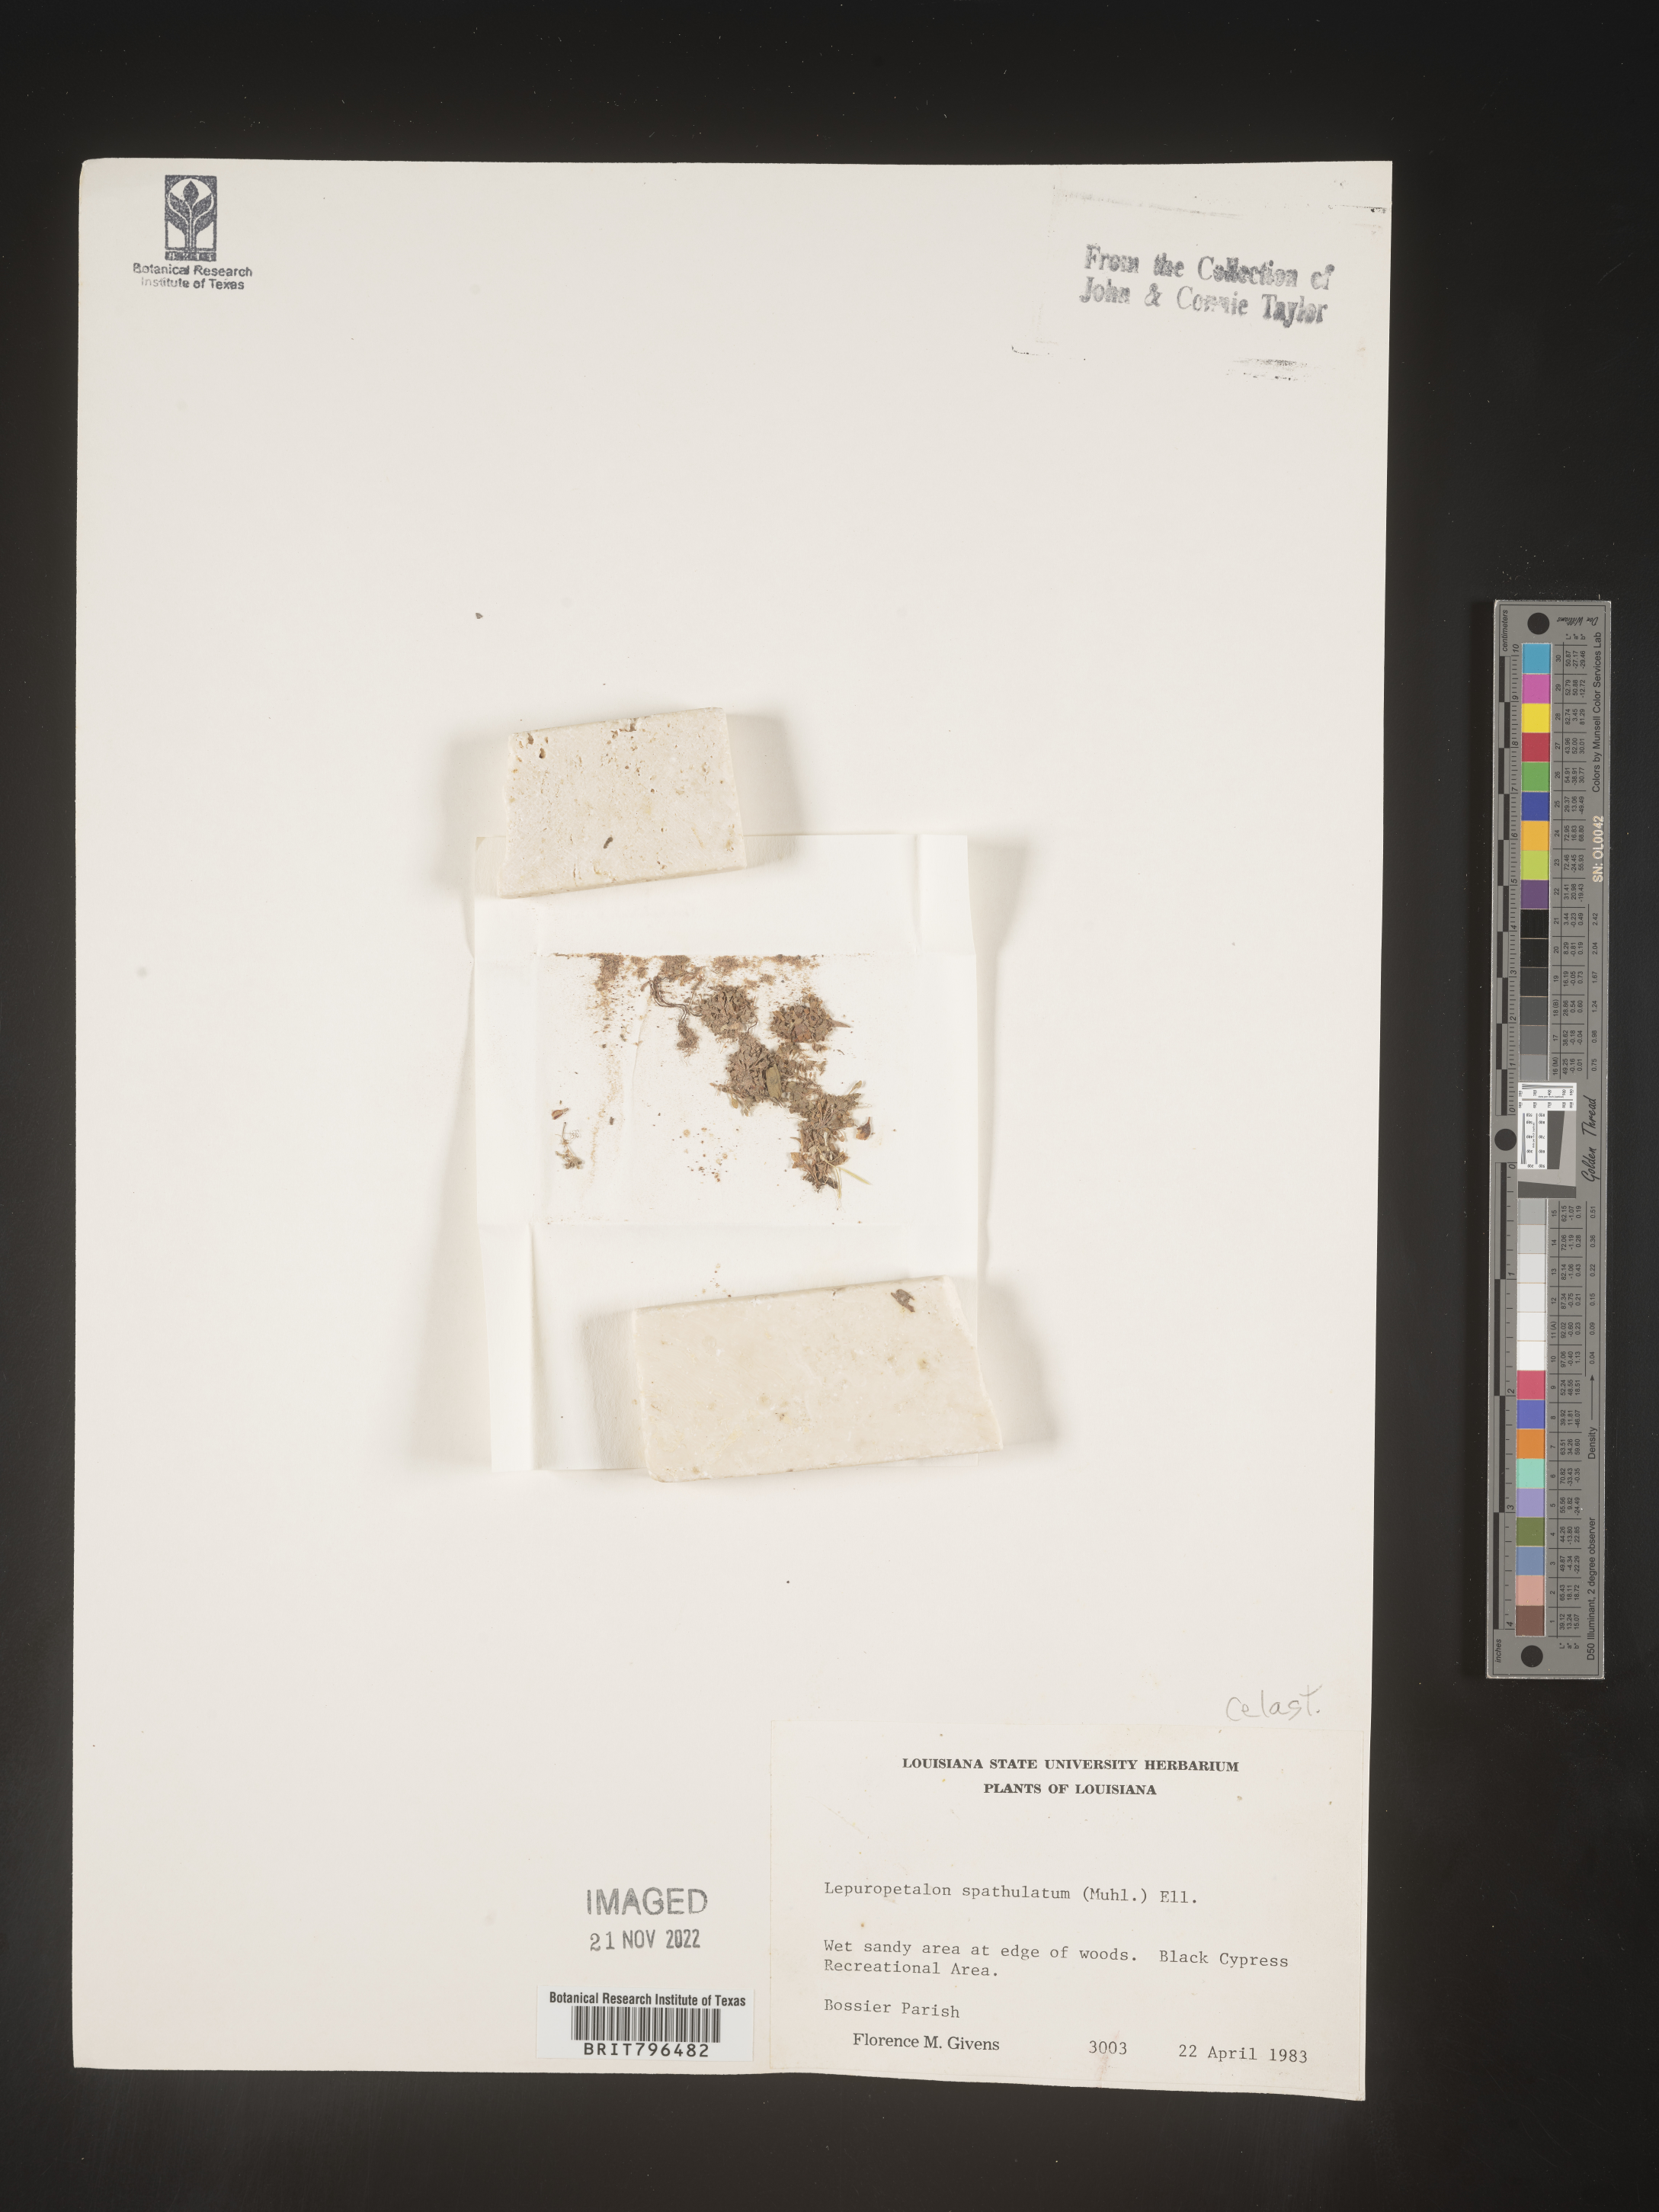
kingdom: Plantae
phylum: Tracheophyta
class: Magnoliopsida
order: Celastrales
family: Parnassiaceae
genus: Lepuropetalon
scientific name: Lepuropetalon
